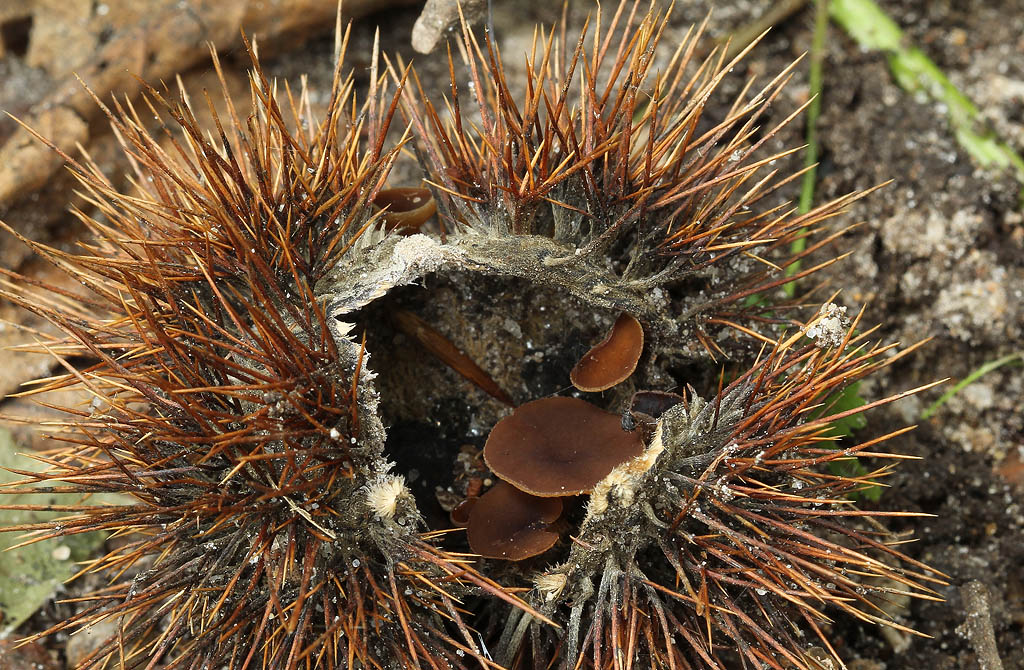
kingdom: Fungi
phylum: Ascomycota
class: Leotiomycetes
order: Helotiales
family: Rutstroemiaceae
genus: Lanzia
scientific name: Lanzia echinophila
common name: kastanie-brunskive
